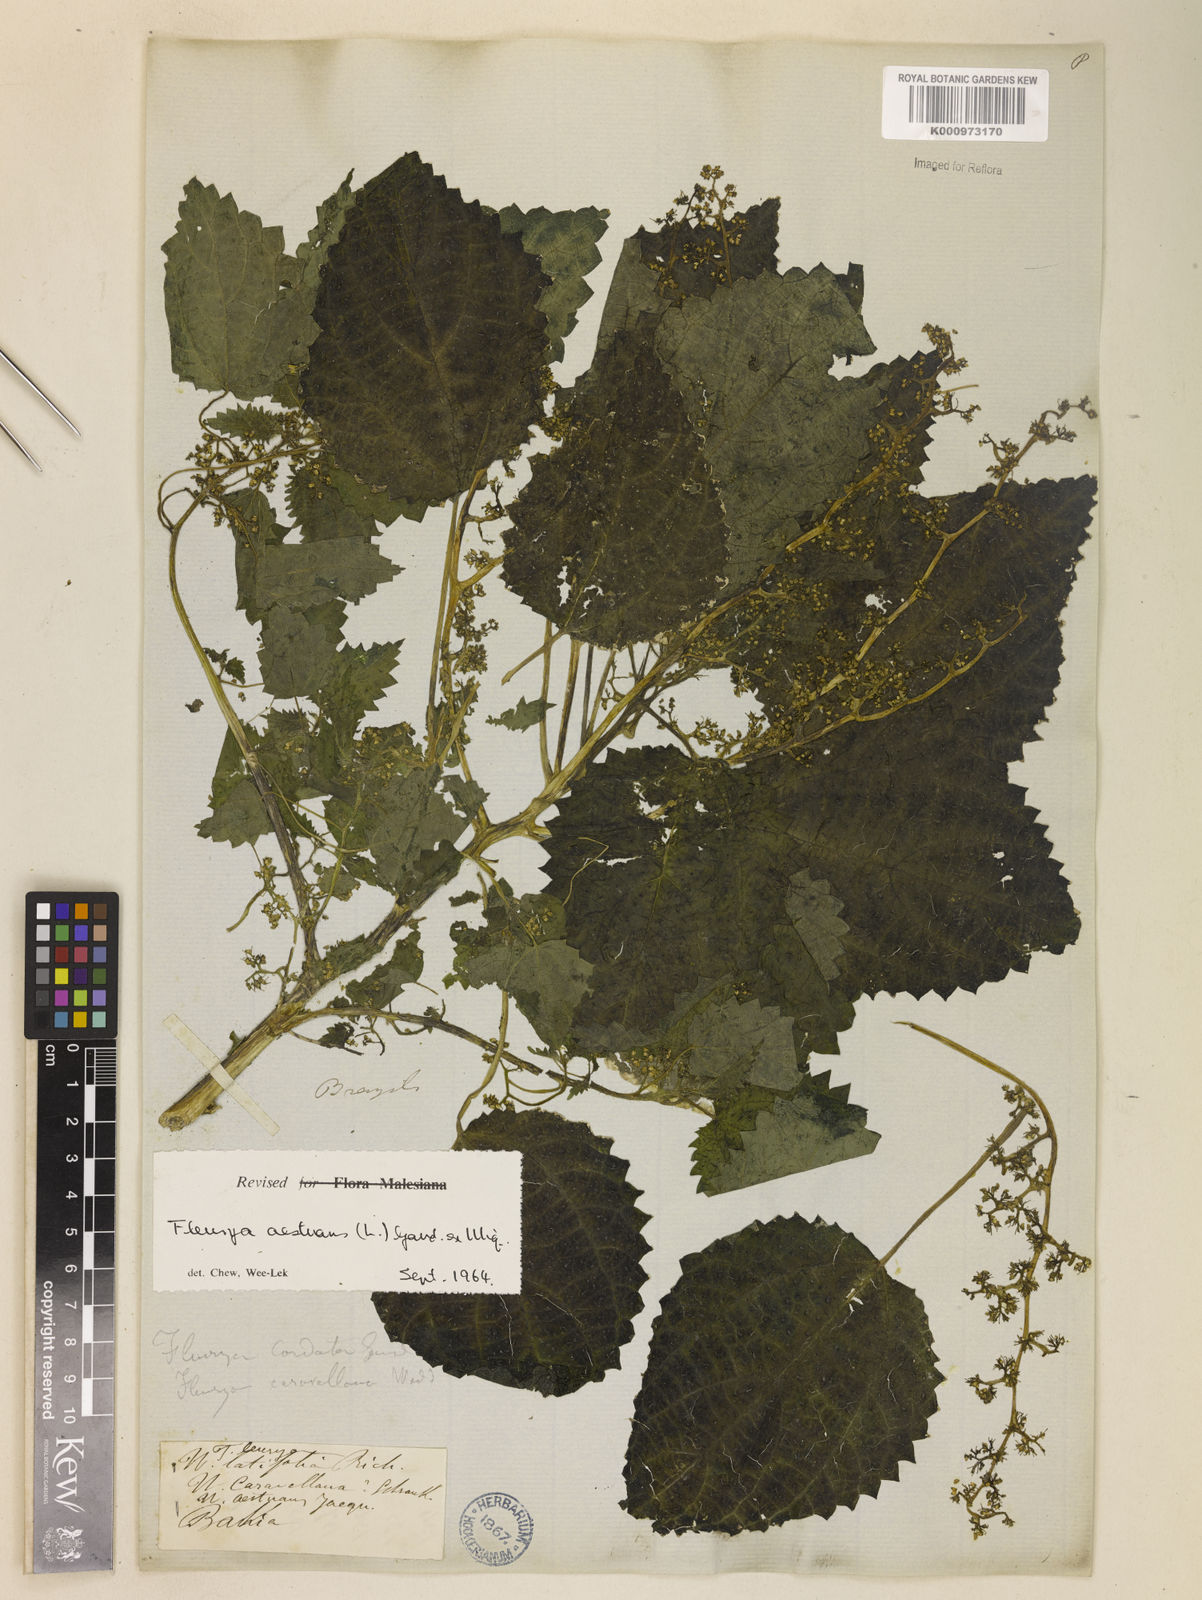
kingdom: Plantae
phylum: Tracheophyta
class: Magnoliopsida
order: Rosales
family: Urticaceae
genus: Laportea
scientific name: Laportea aestuans
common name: West indian woodnettle
